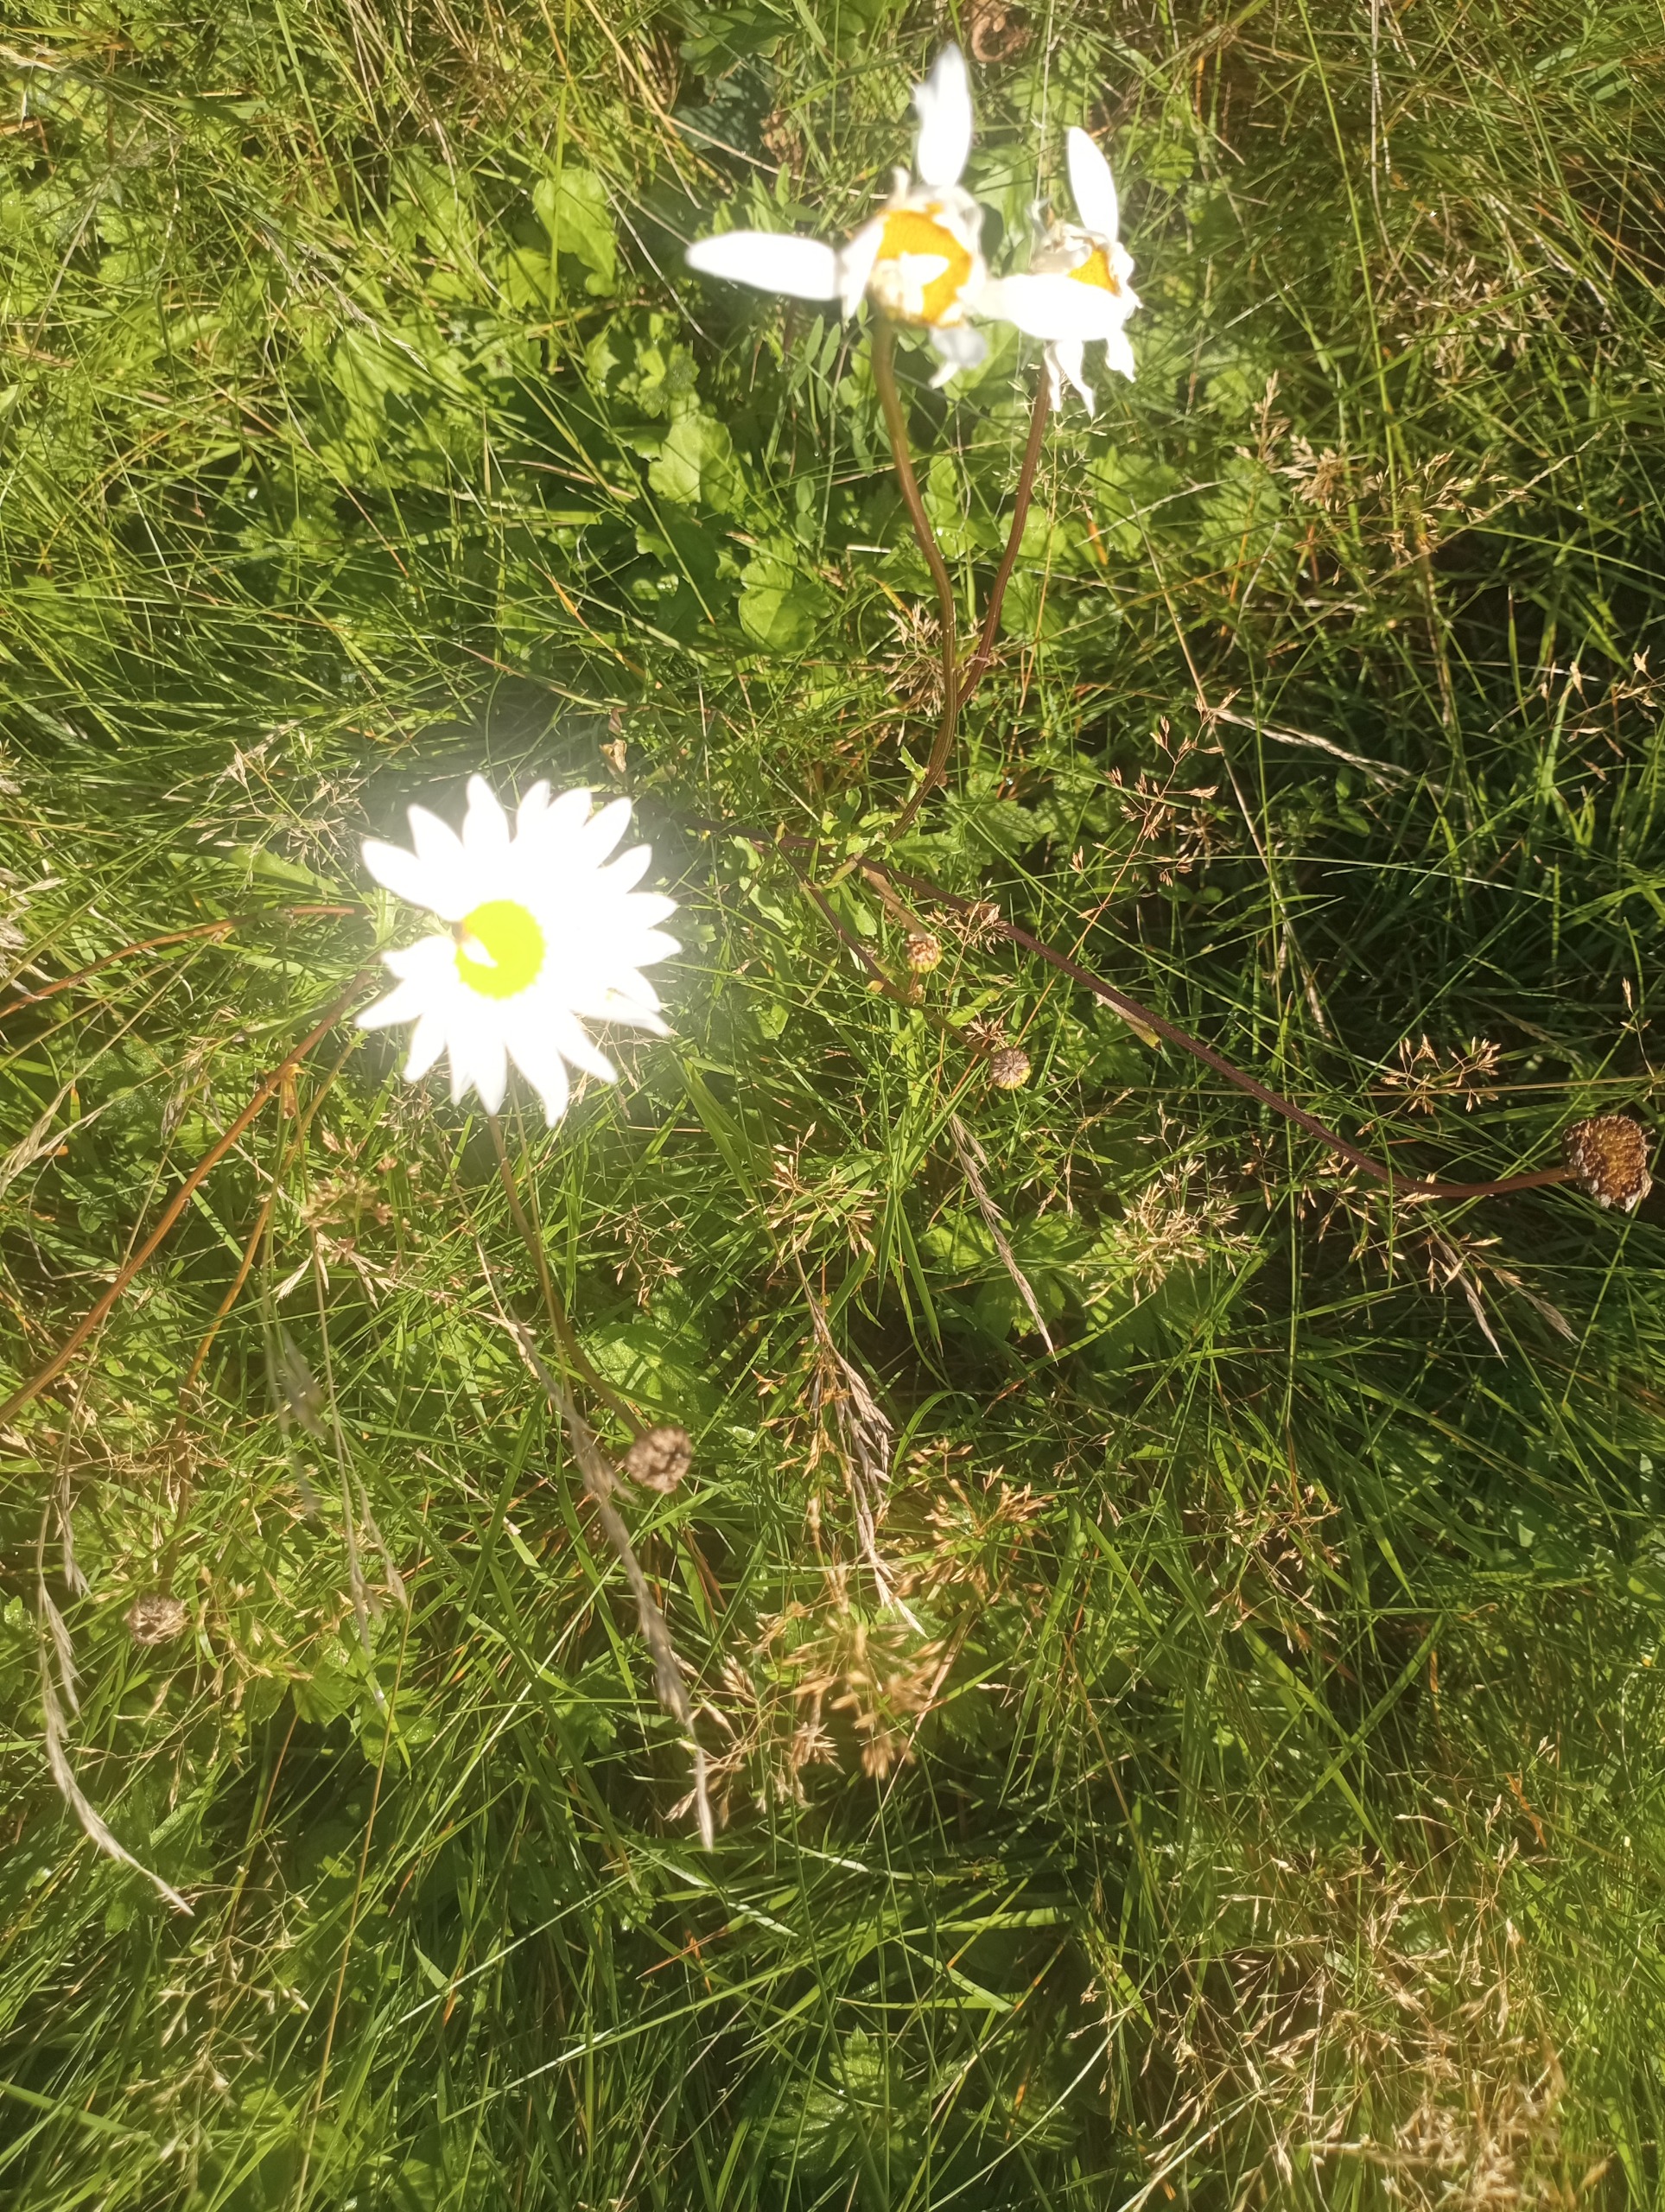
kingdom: Plantae
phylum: Tracheophyta
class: Magnoliopsida
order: Asterales
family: Asteraceae
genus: Leucanthemum
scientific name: Leucanthemum vulgare
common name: Hvid okseøje
